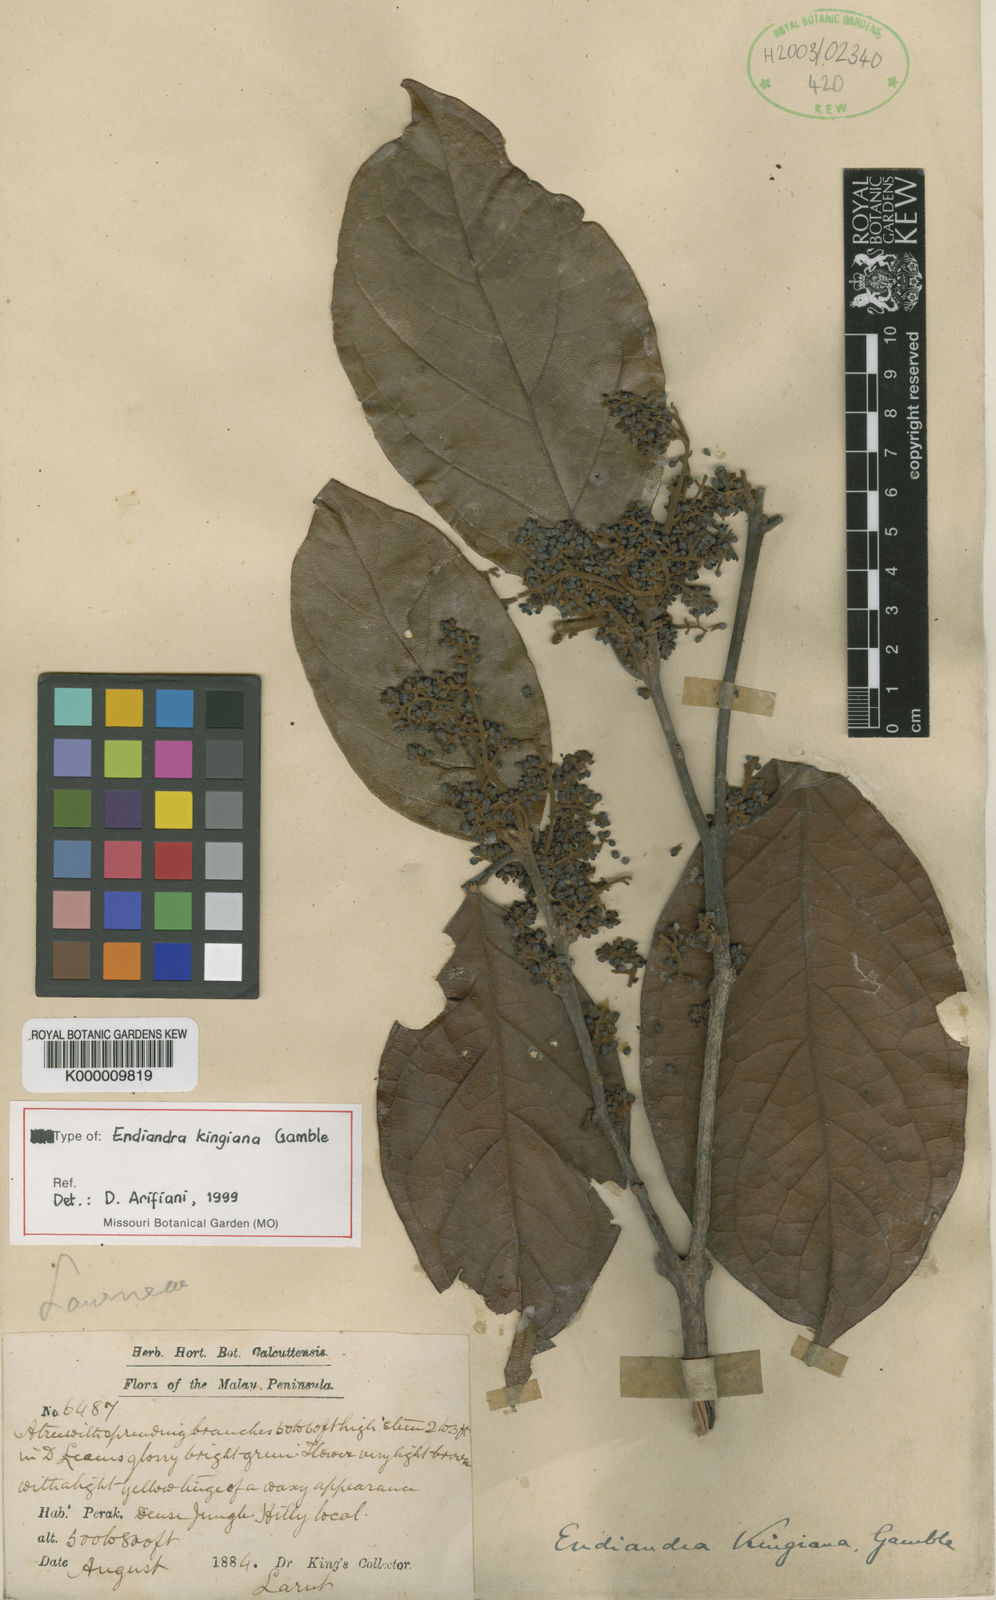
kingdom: Plantae
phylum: Tracheophyta
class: Magnoliopsida
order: Laurales
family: Lauraceae
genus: Endiandra
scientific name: Endiandra kingiana
